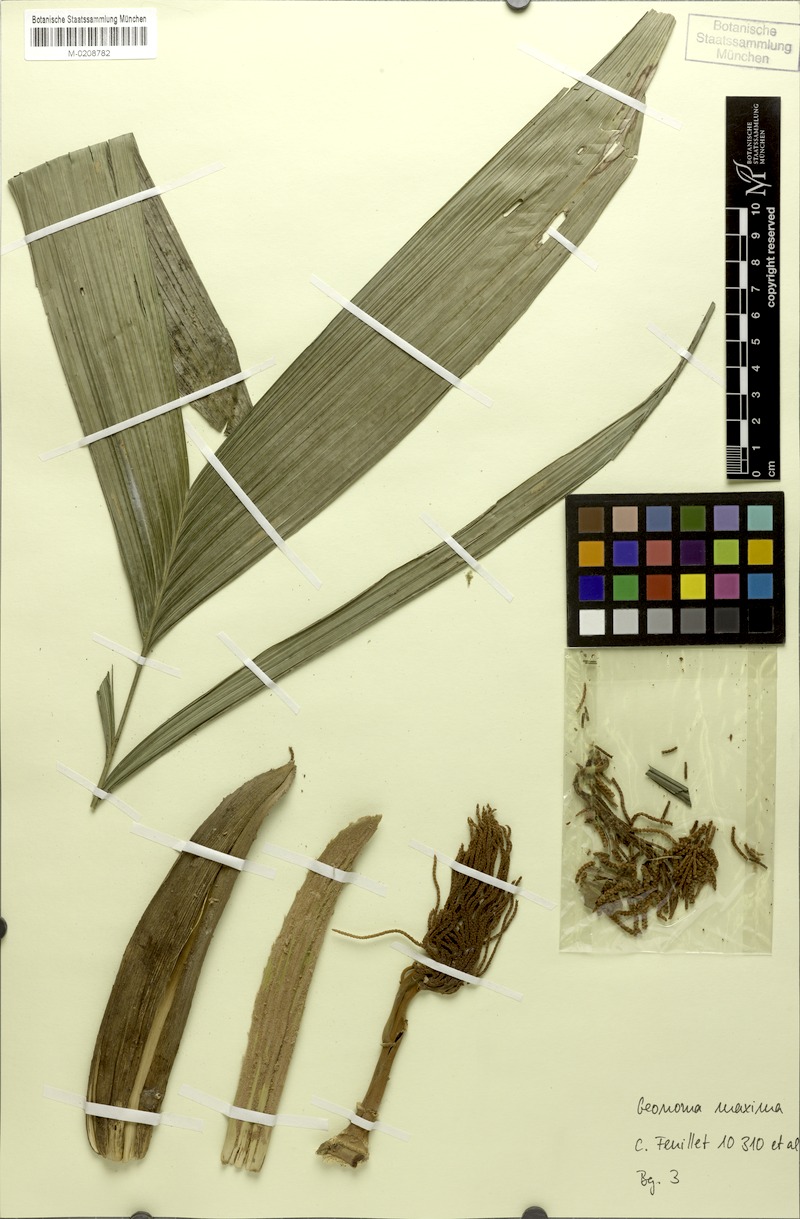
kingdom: Plantae
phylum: Tracheophyta
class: Liliopsida
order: Arecales
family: Arecaceae
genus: Geonoma
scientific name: Geonoma maxima
